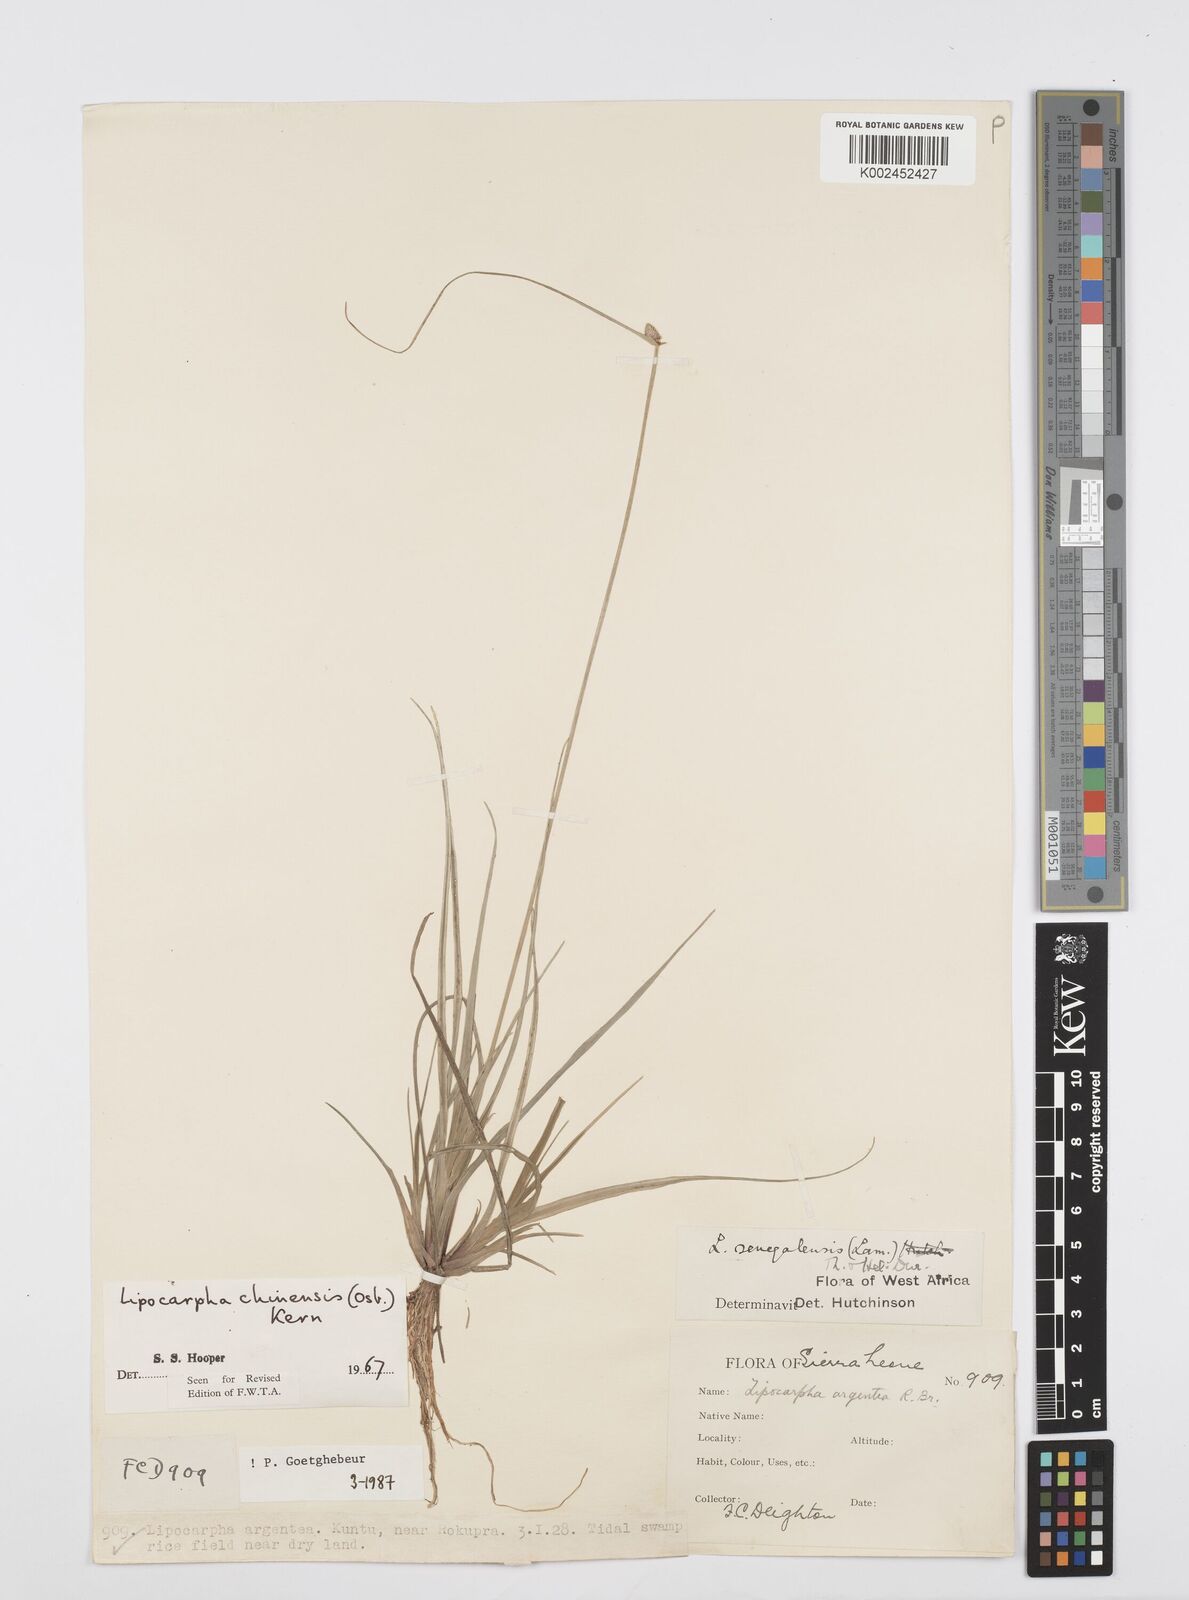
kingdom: Plantae
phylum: Tracheophyta
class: Liliopsida
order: Poales
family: Cyperaceae
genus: Cyperus
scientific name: Cyperus albescens
